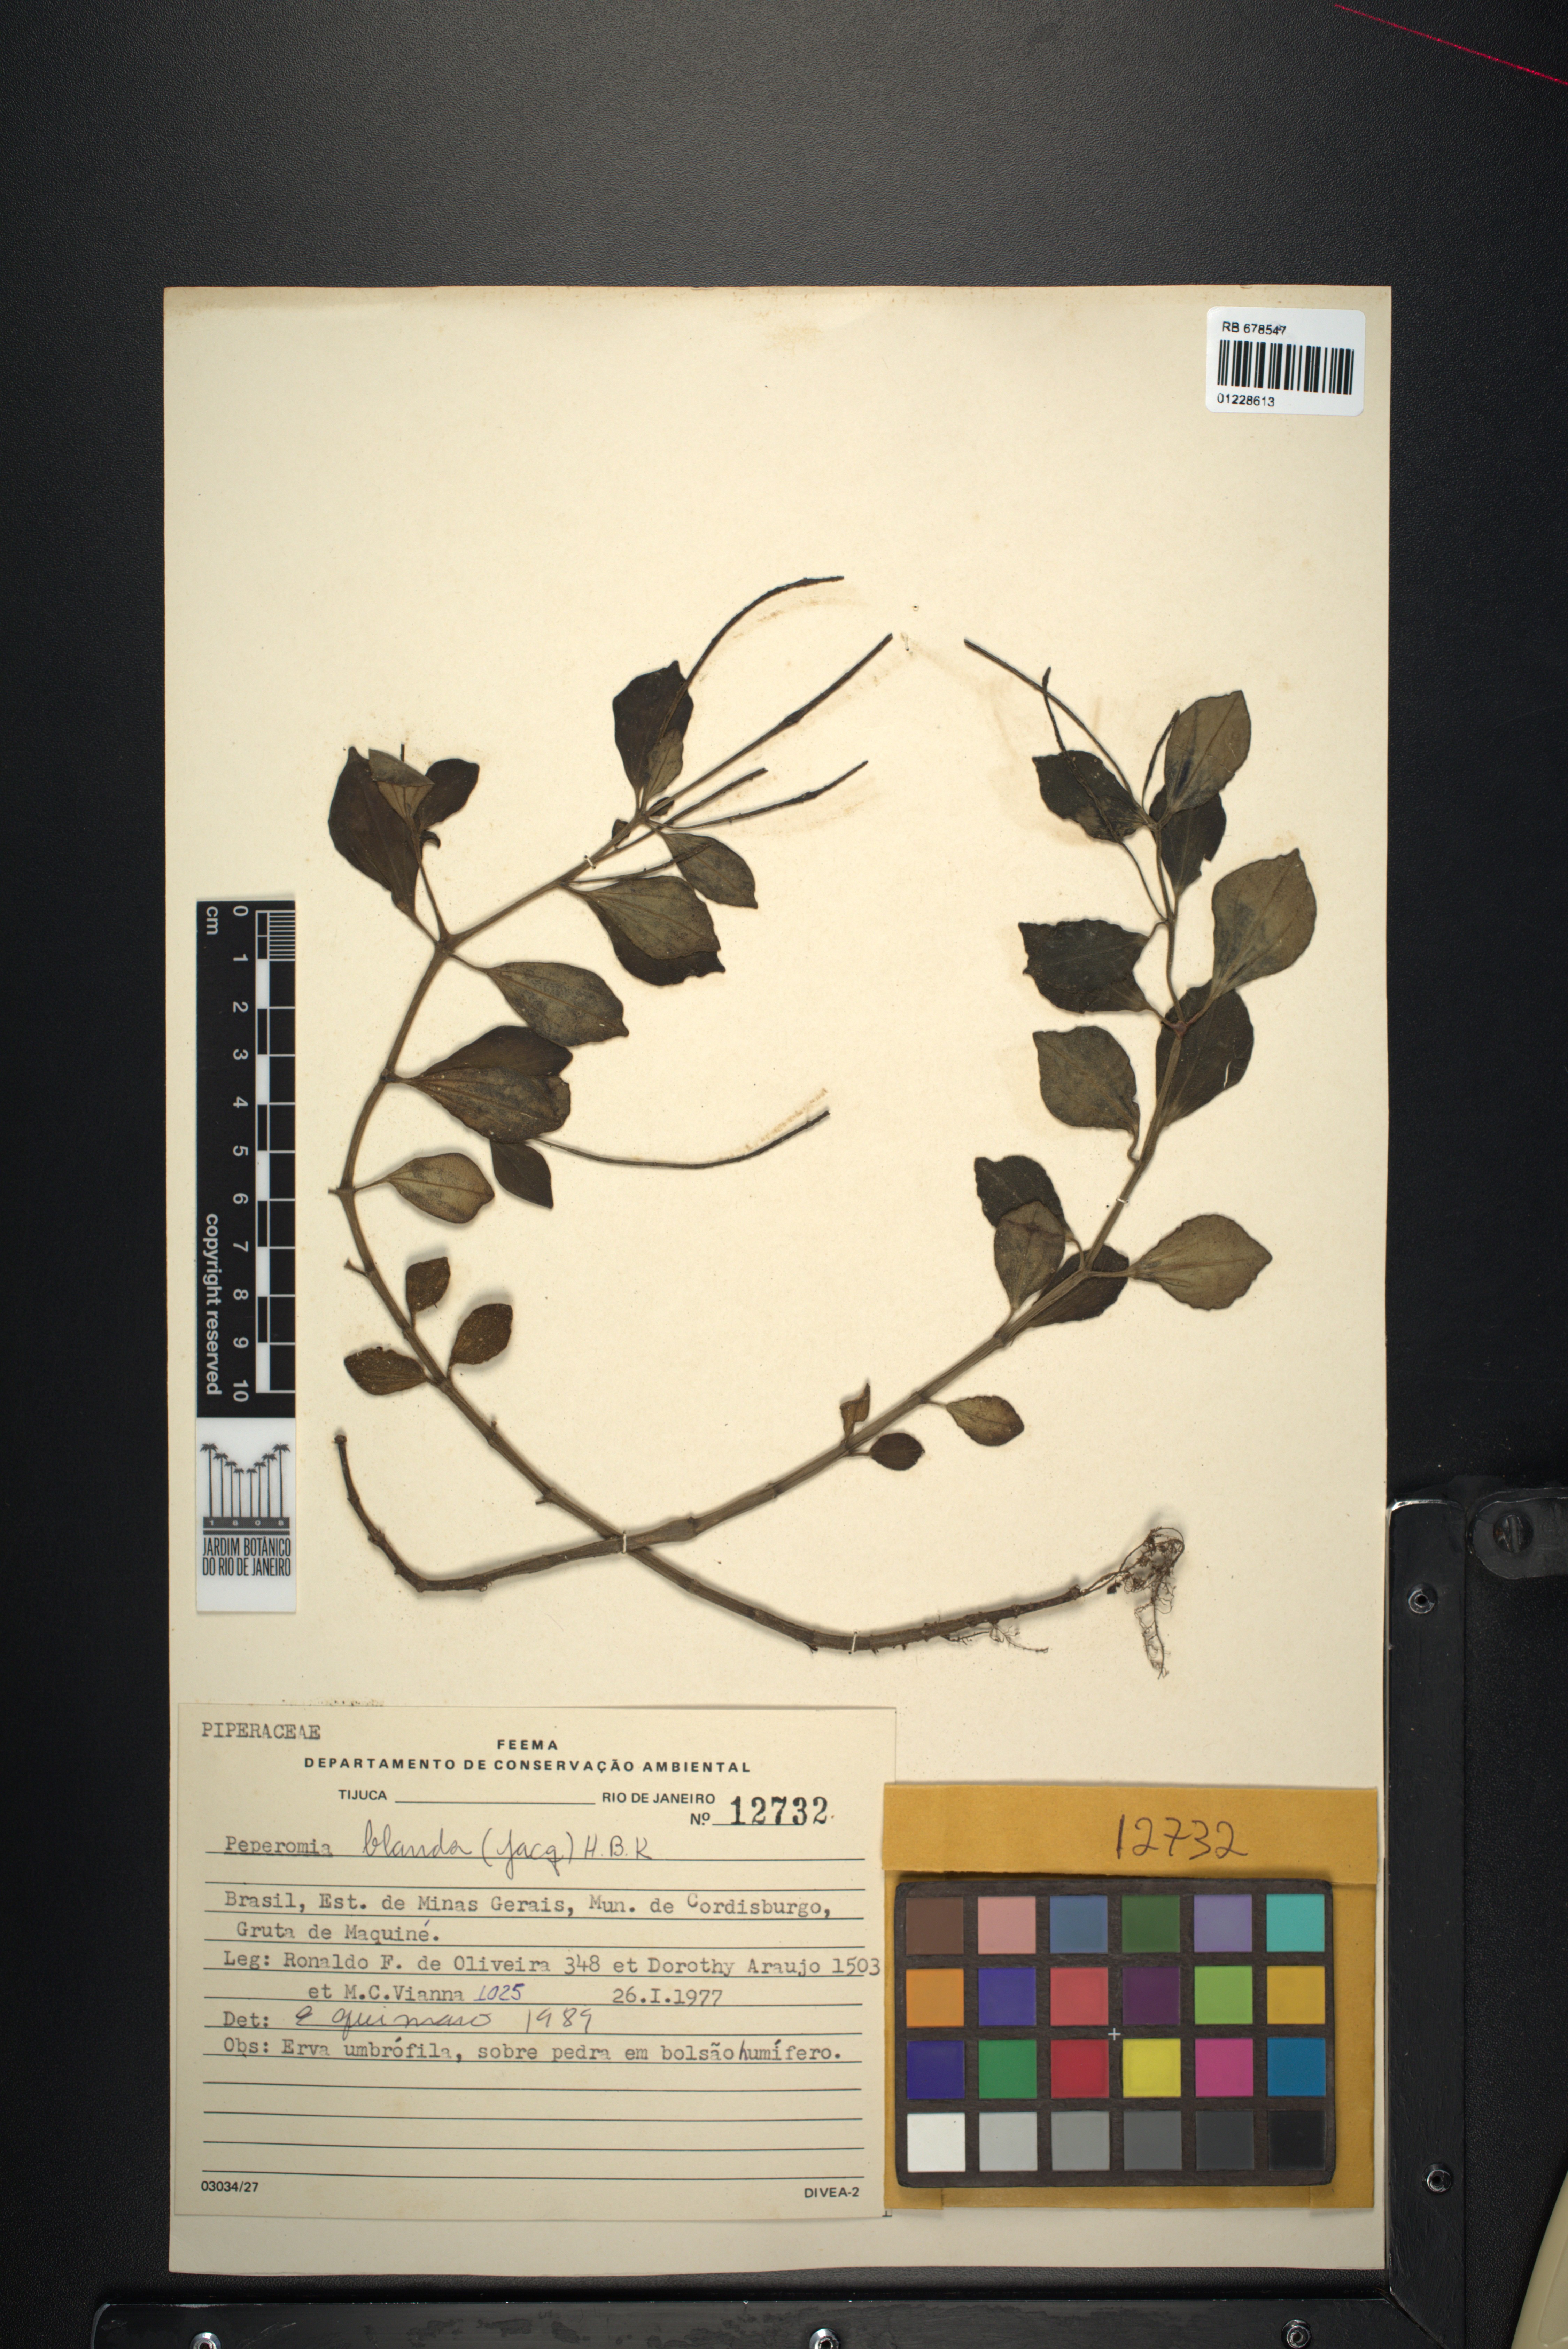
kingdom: Plantae
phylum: Tracheophyta
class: Magnoliopsida
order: Piperales
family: Piperaceae
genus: Peperomia
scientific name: Peperomia blanda
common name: Arid-land peperomia
